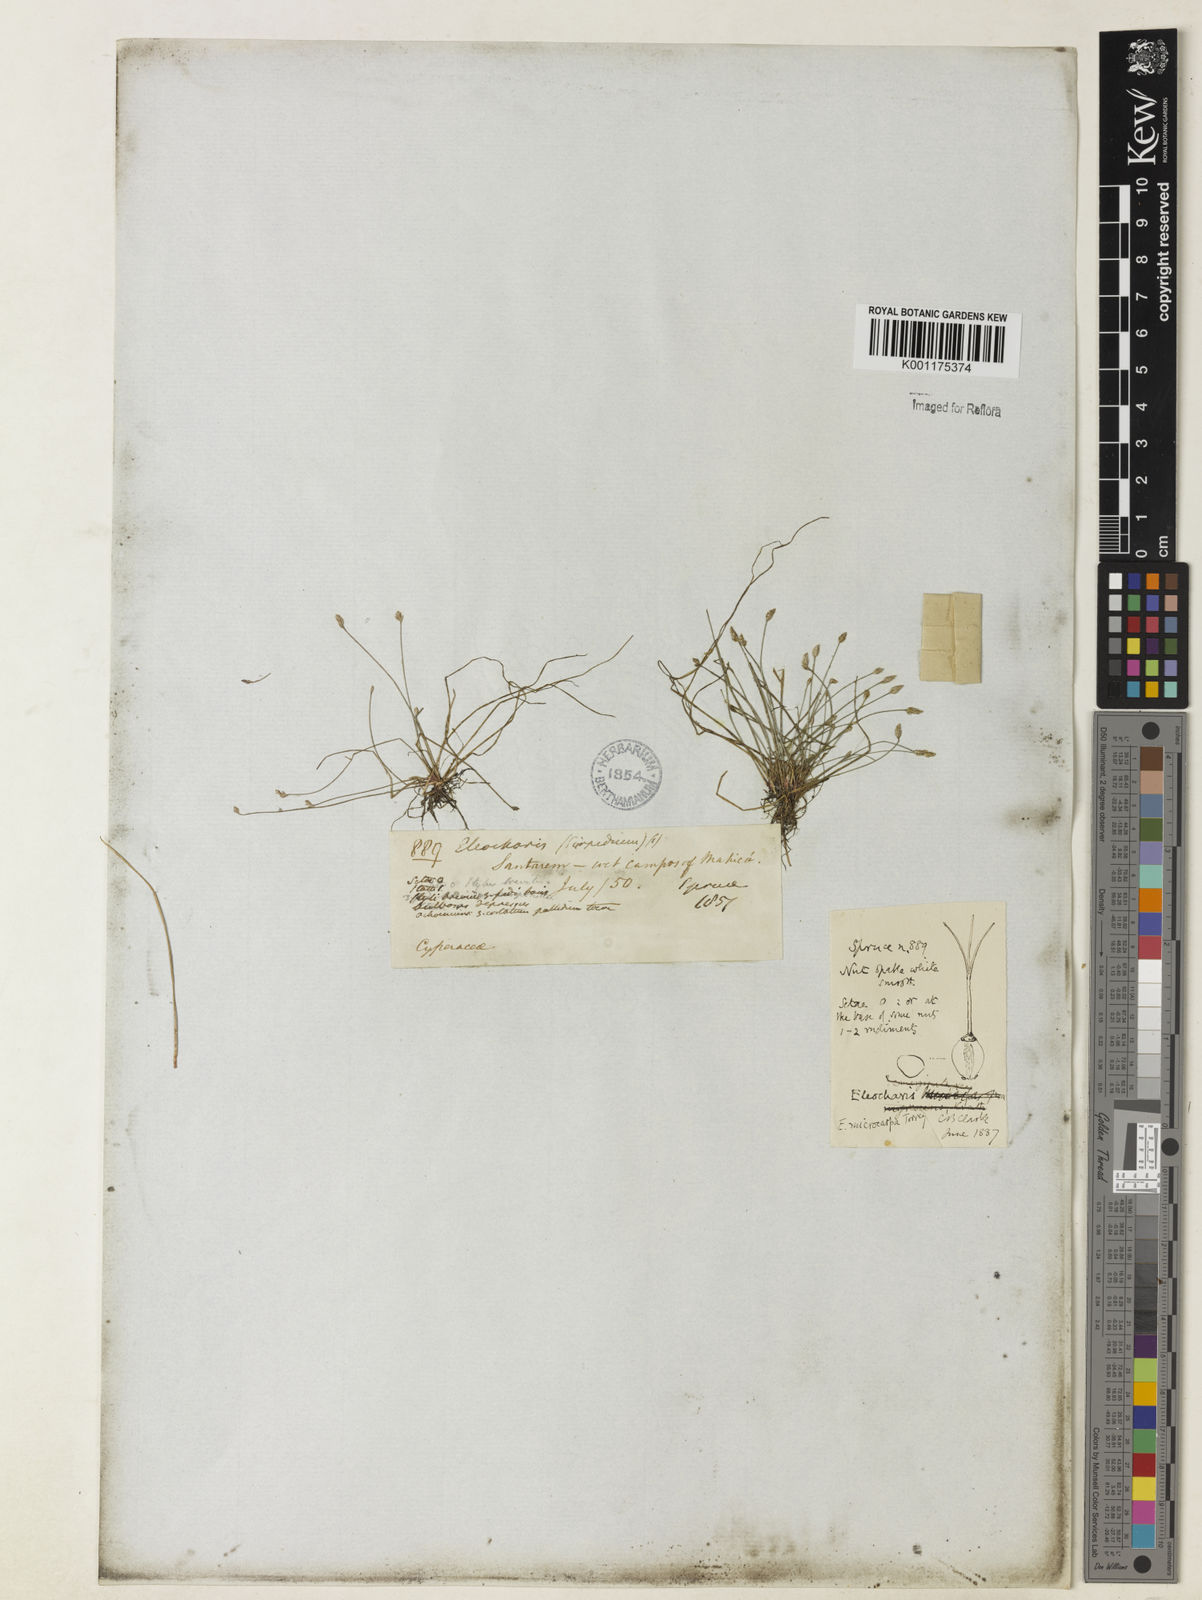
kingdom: Plantae
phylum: Tracheophyta
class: Liliopsida
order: Poales
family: Cyperaceae
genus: Eleocharis
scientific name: Eleocharis microcarpa
